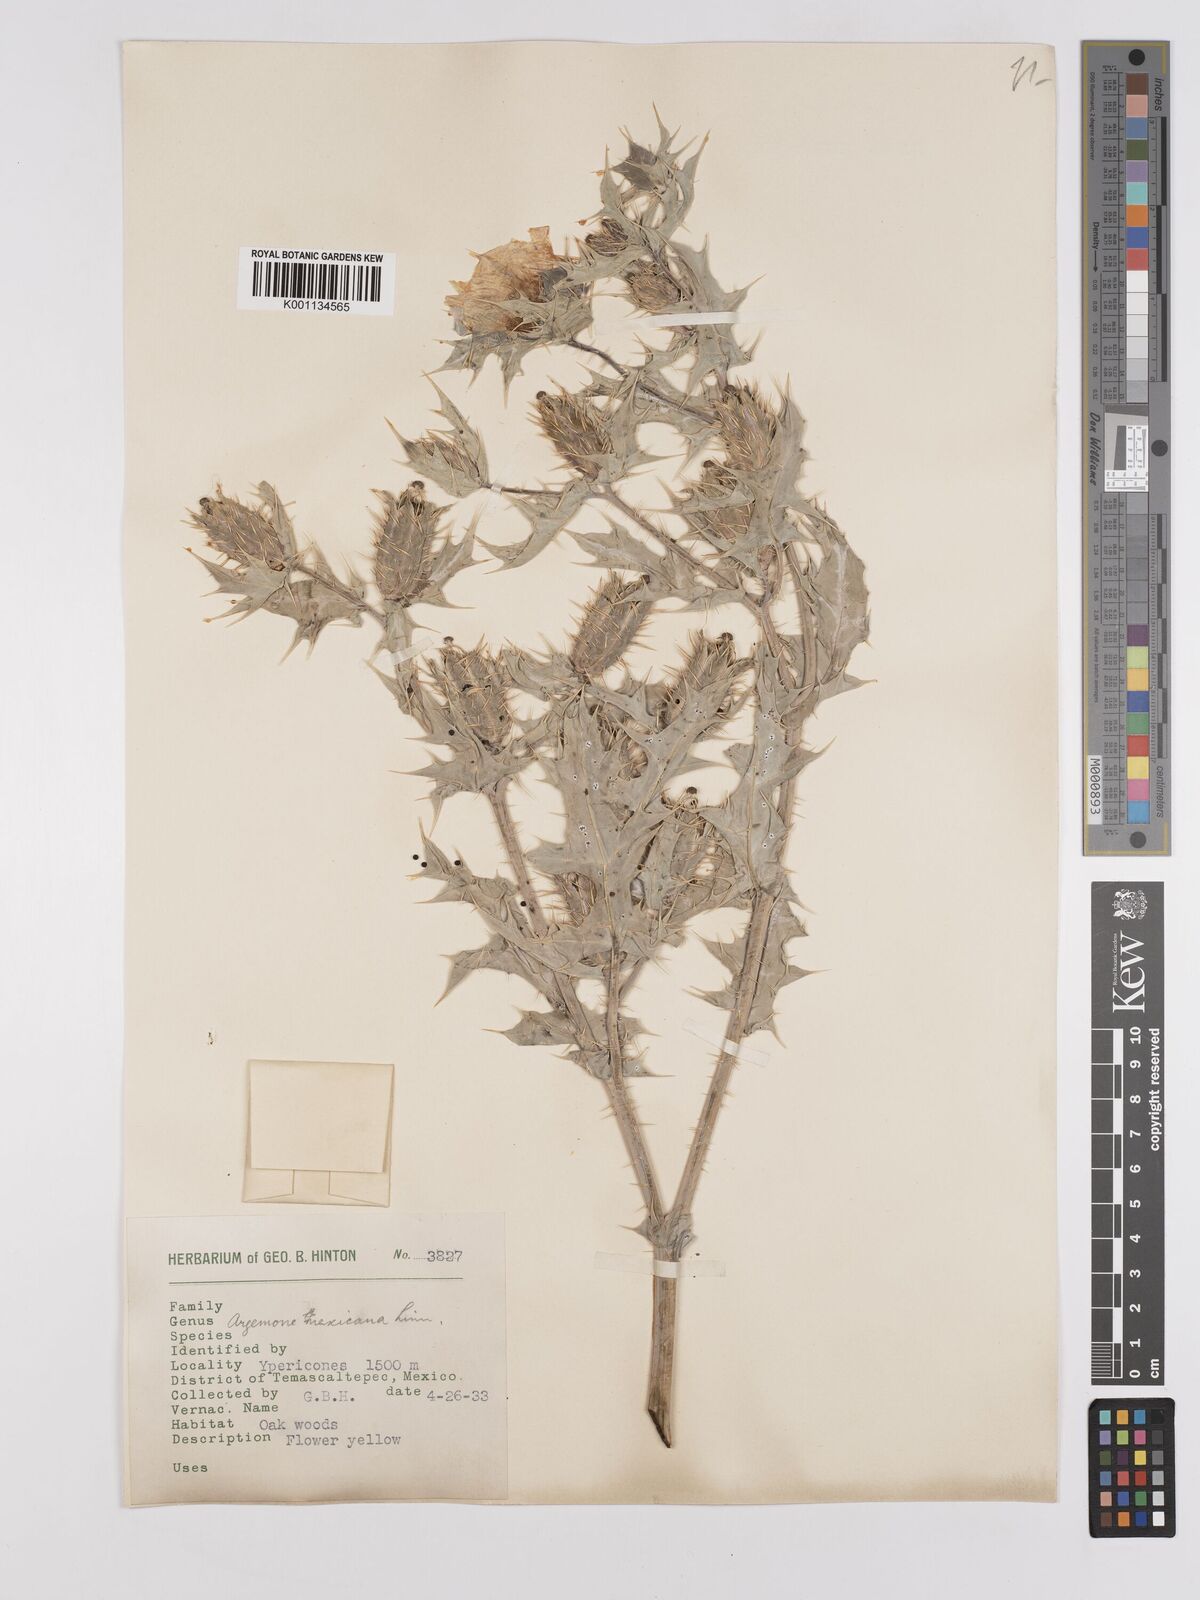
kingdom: Plantae
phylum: Tracheophyta
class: Magnoliopsida
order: Ranunculales
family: Papaveraceae
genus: Argemone
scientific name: Argemone mexicana
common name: Mexican poppy
